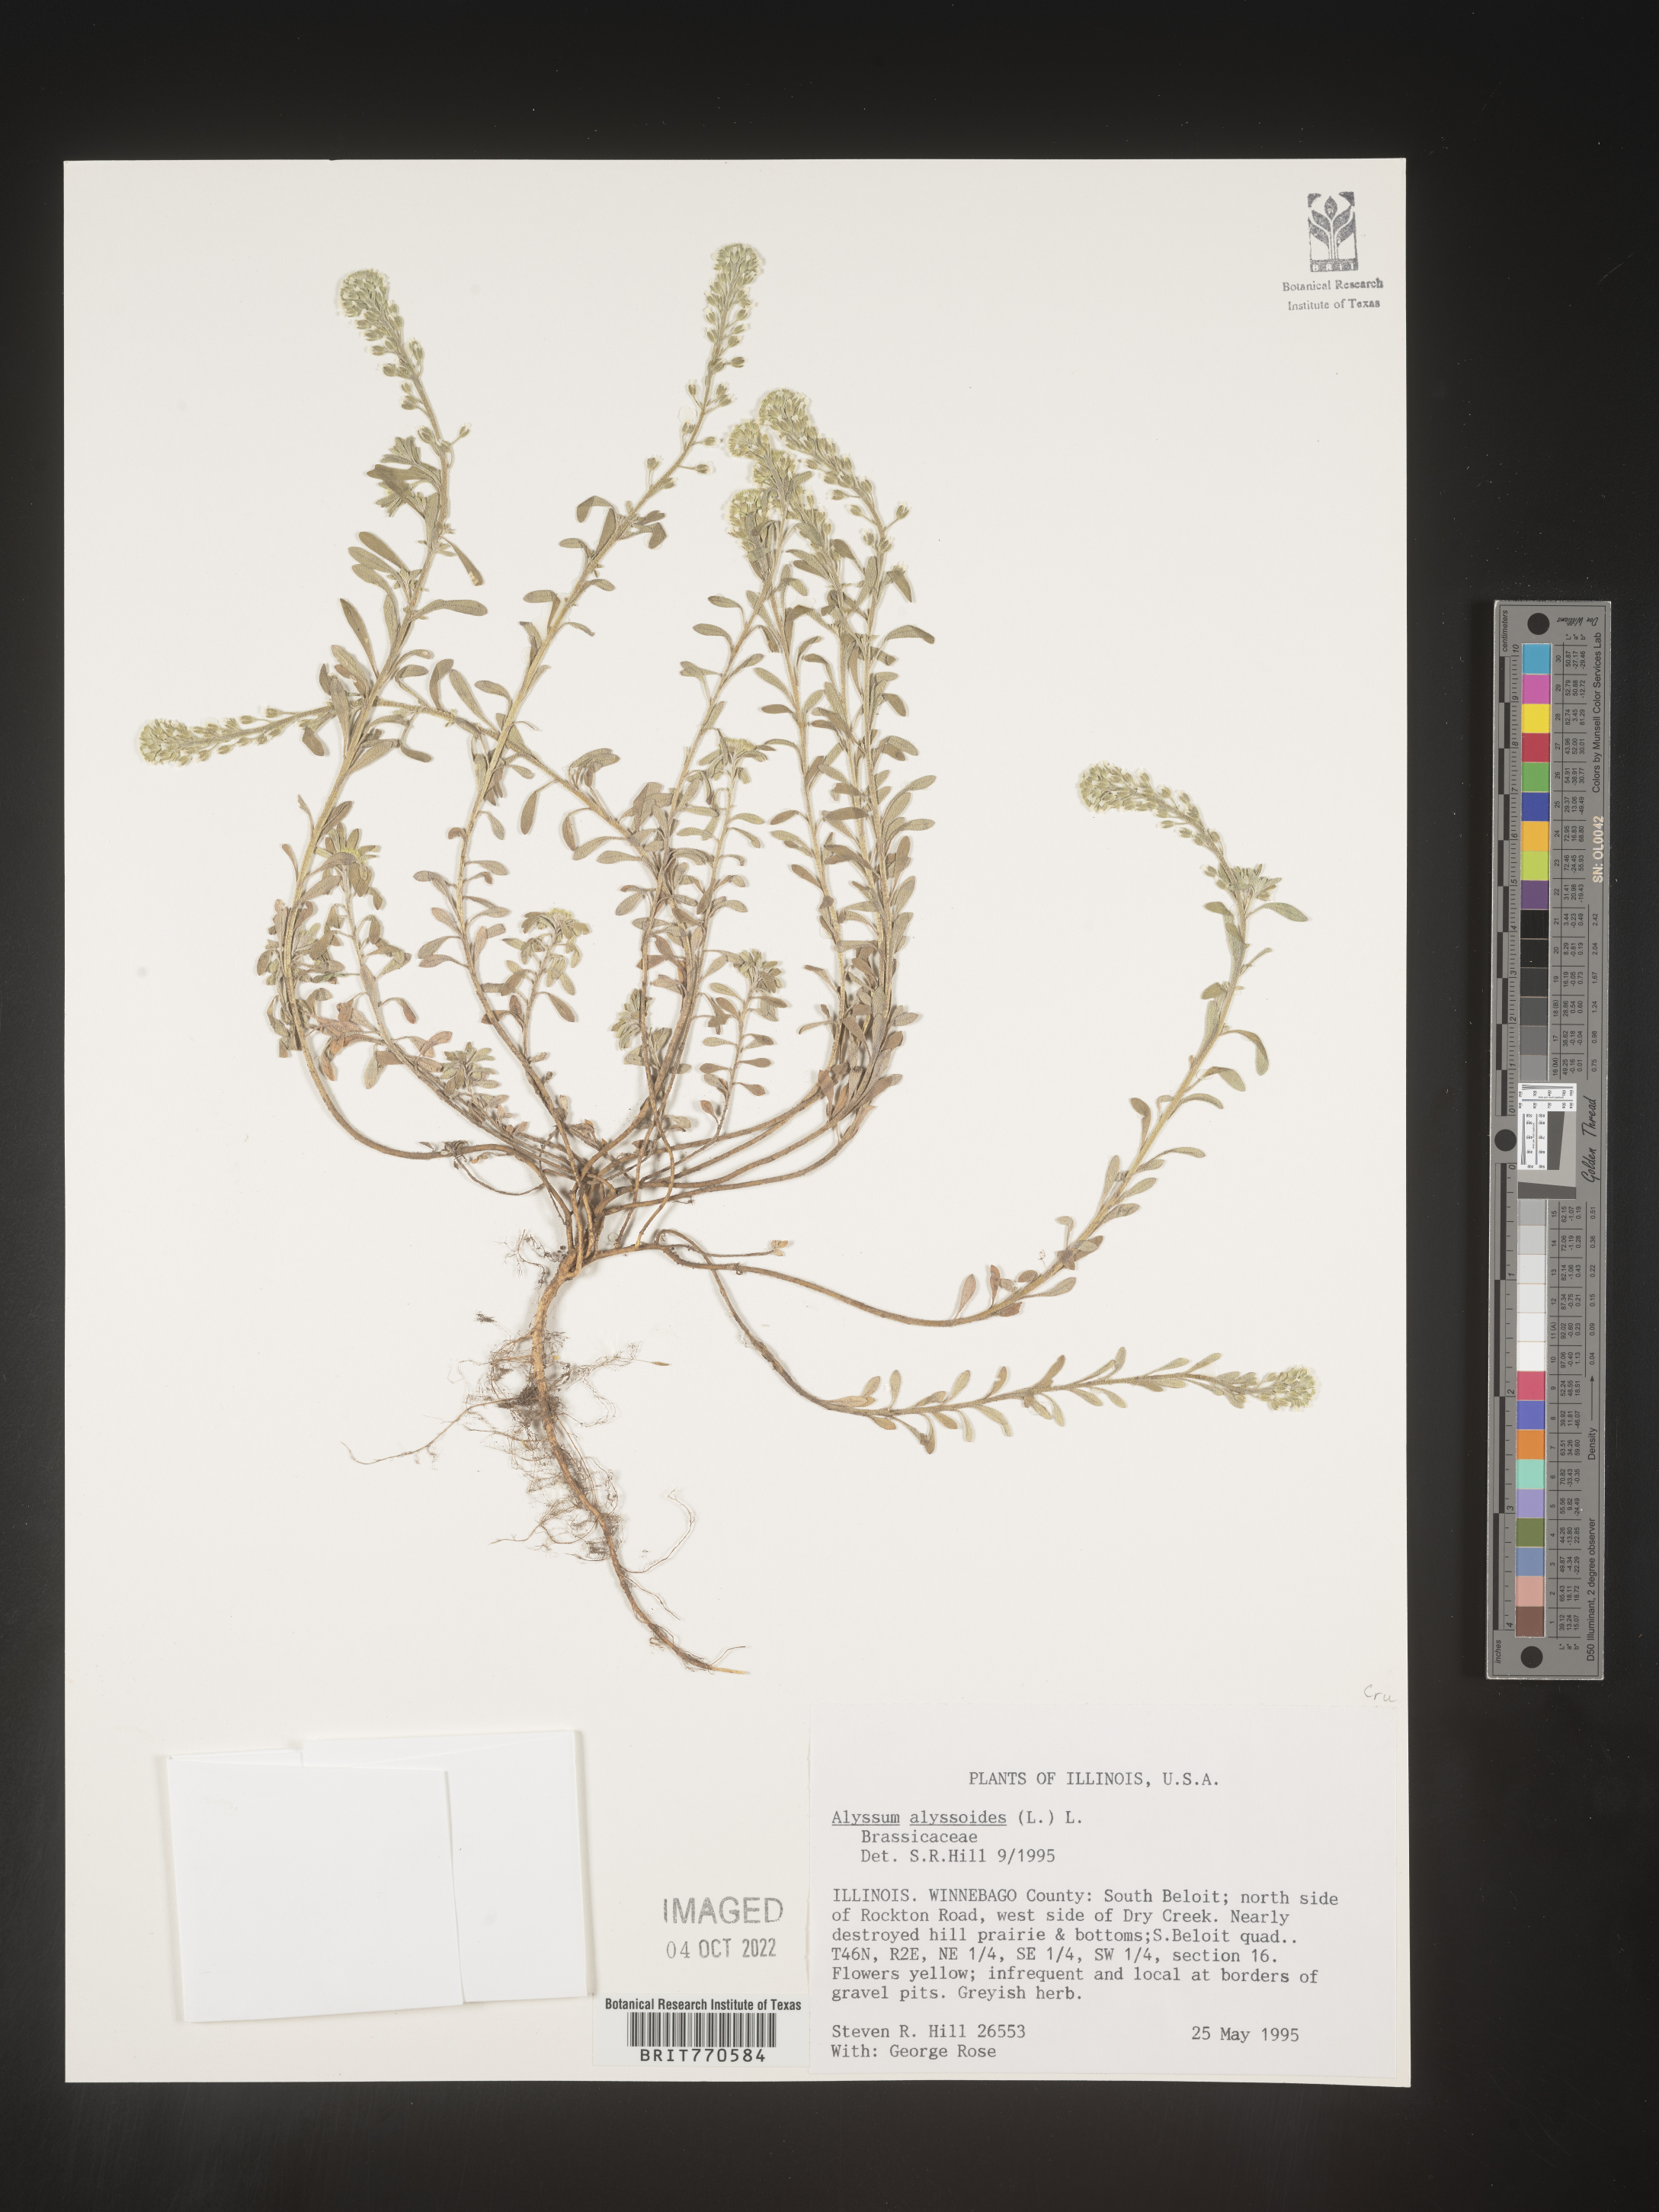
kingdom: Plantae
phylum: Tracheophyta
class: Magnoliopsida
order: Brassicales
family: Brassicaceae
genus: Alyssum
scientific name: Alyssum alyssoides
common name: Small alison
